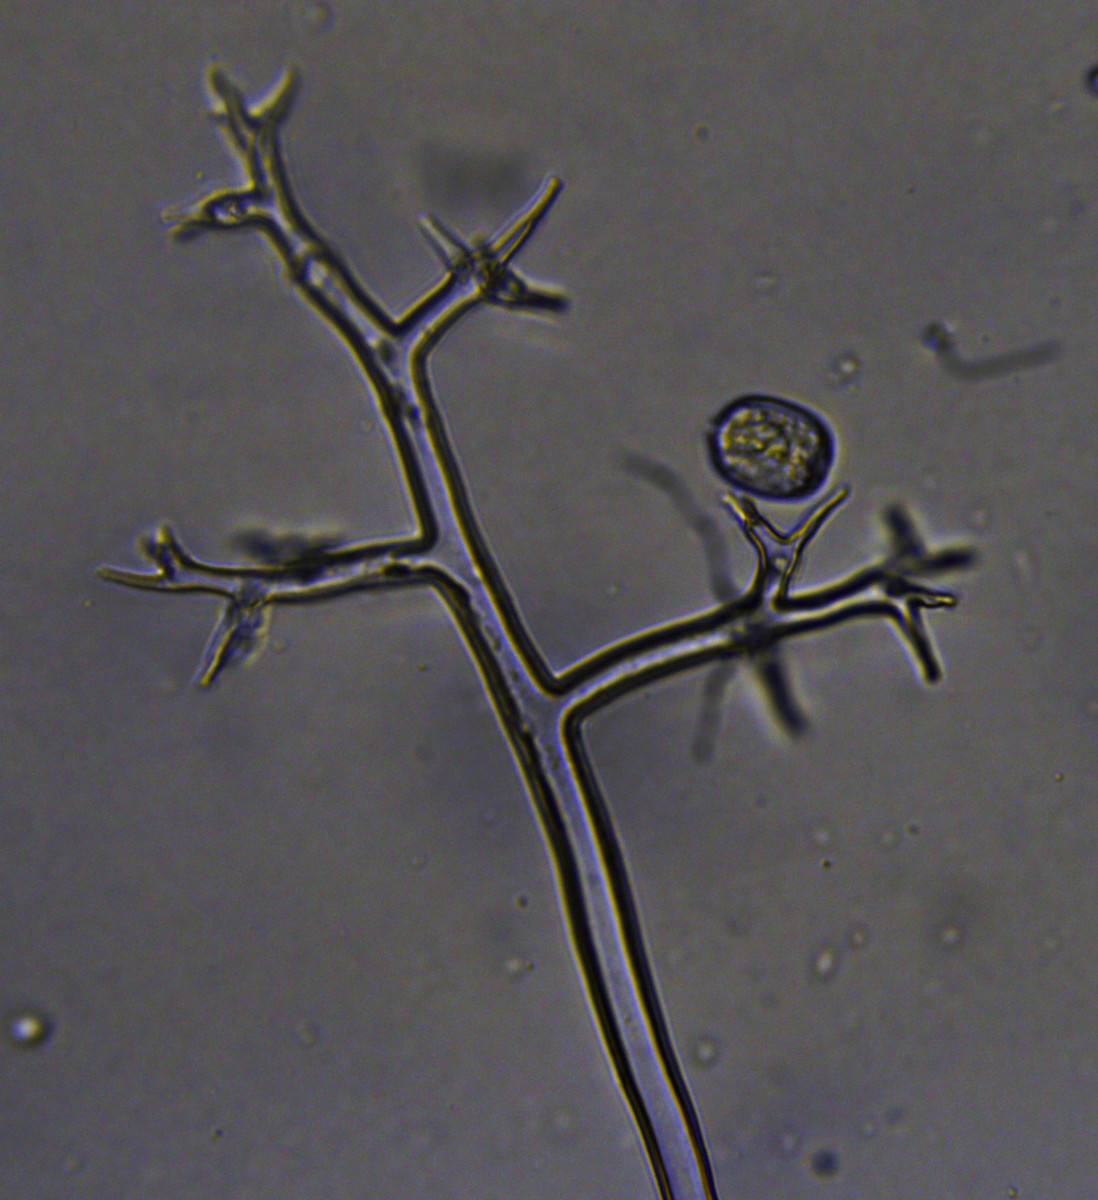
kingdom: Chromista
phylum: Oomycota
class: Peronosporea
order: Peronosporales
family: Peronosporaceae
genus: Peronospora
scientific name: Peronospora crustosa
